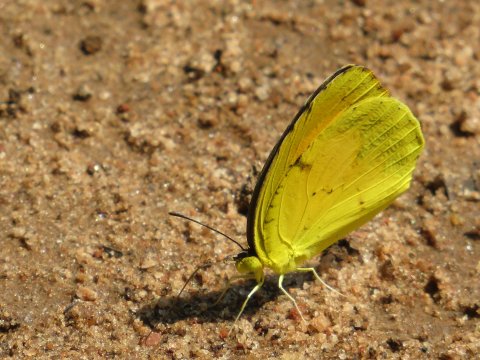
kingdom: Animalia
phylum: Arthropoda
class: Insecta
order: Lepidoptera
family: Pieridae
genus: Pyrisitia
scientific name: Pyrisitia lisa
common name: Little Yellow
